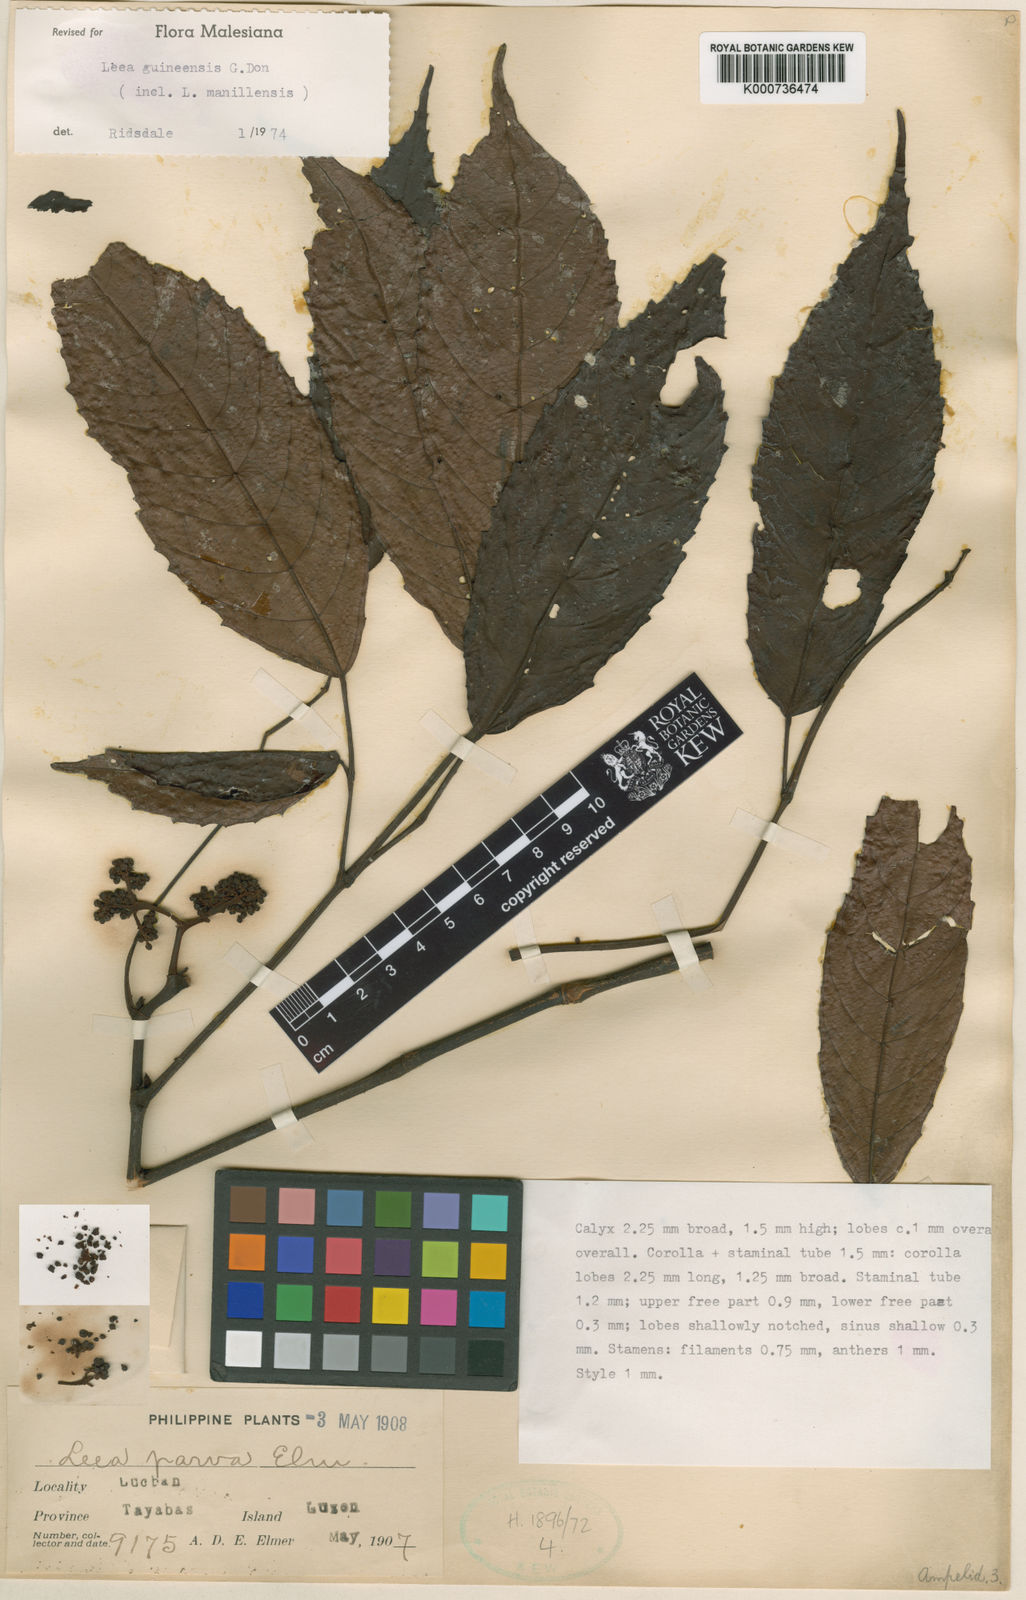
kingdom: Plantae
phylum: Tracheophyta
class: Magnoliopsida
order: Vitales
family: Vitaceae
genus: Leea
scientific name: Leea guineensis
